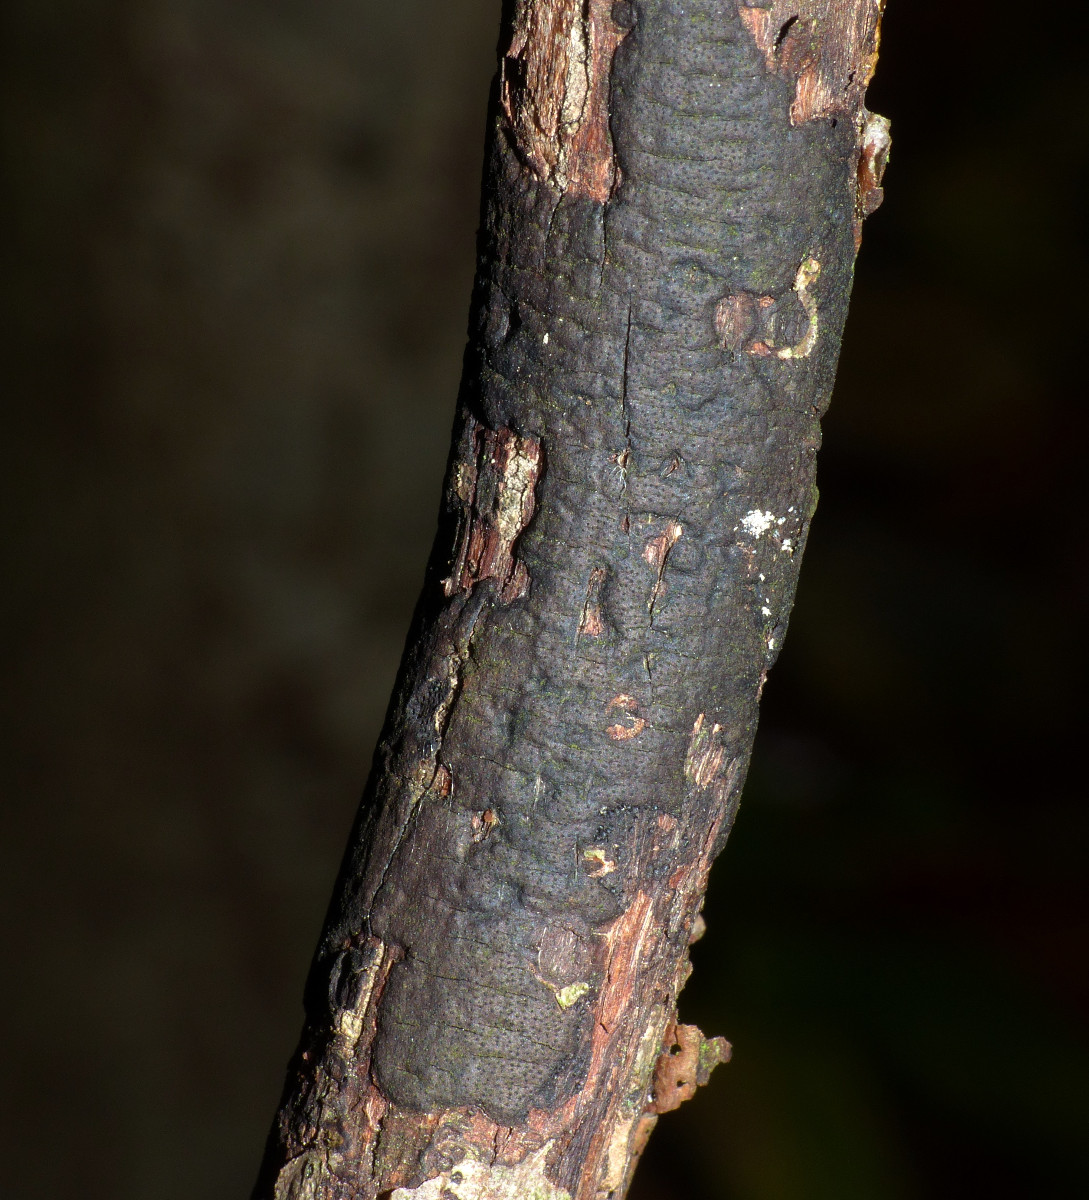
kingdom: Fungi
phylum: Ascomycota
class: Sordariomycetes
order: Xylariales
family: Diatrypaceae
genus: Diatrype
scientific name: Diatrype stigma
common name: udbredt kulskorpe
